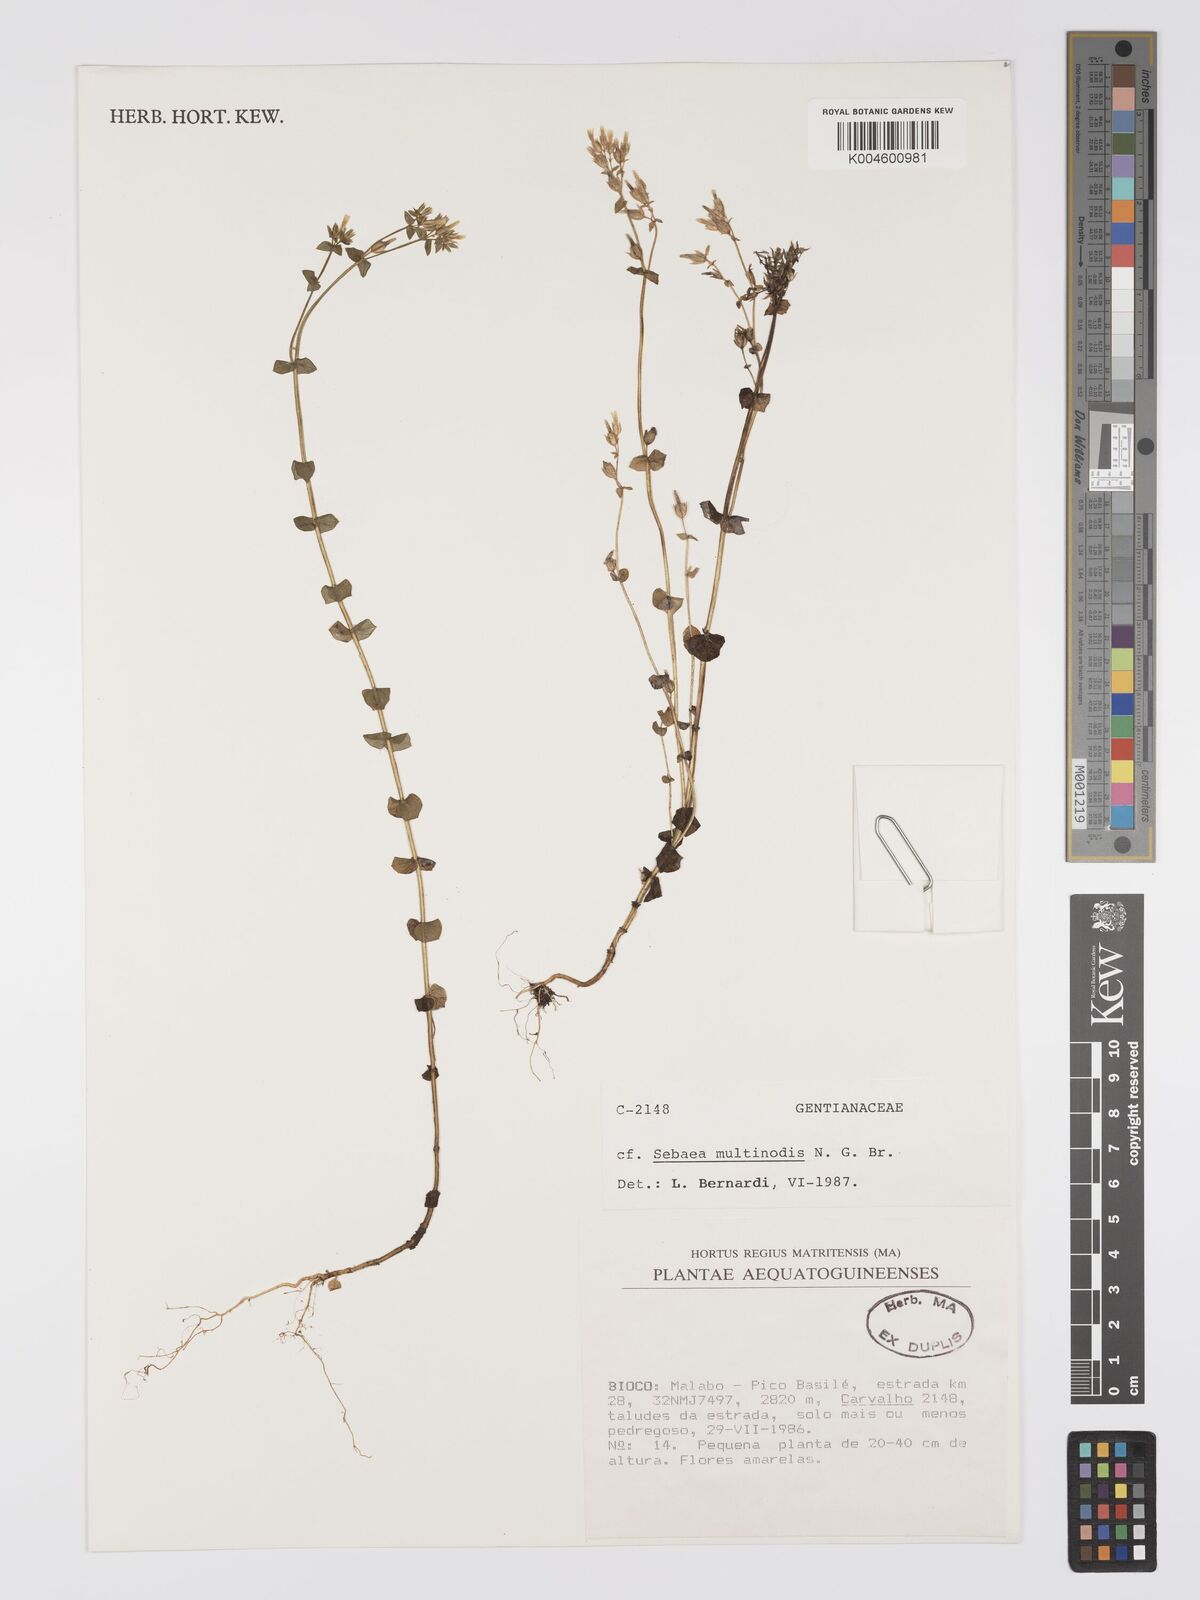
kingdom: Plantae
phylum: Tracheophyta
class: Magnoliopsida
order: Gentianales
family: Gentianaceae
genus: Sebaea
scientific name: Sebaea brachyphylla
